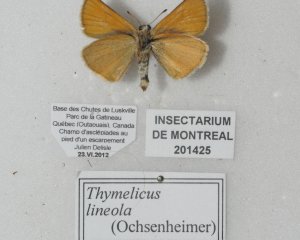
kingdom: Animalia
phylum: Arthropoda
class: Insecta
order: Lepidoptera
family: Hesperiidae
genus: Thymelicus
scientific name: Thymelicus lineola
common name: European Skipper
